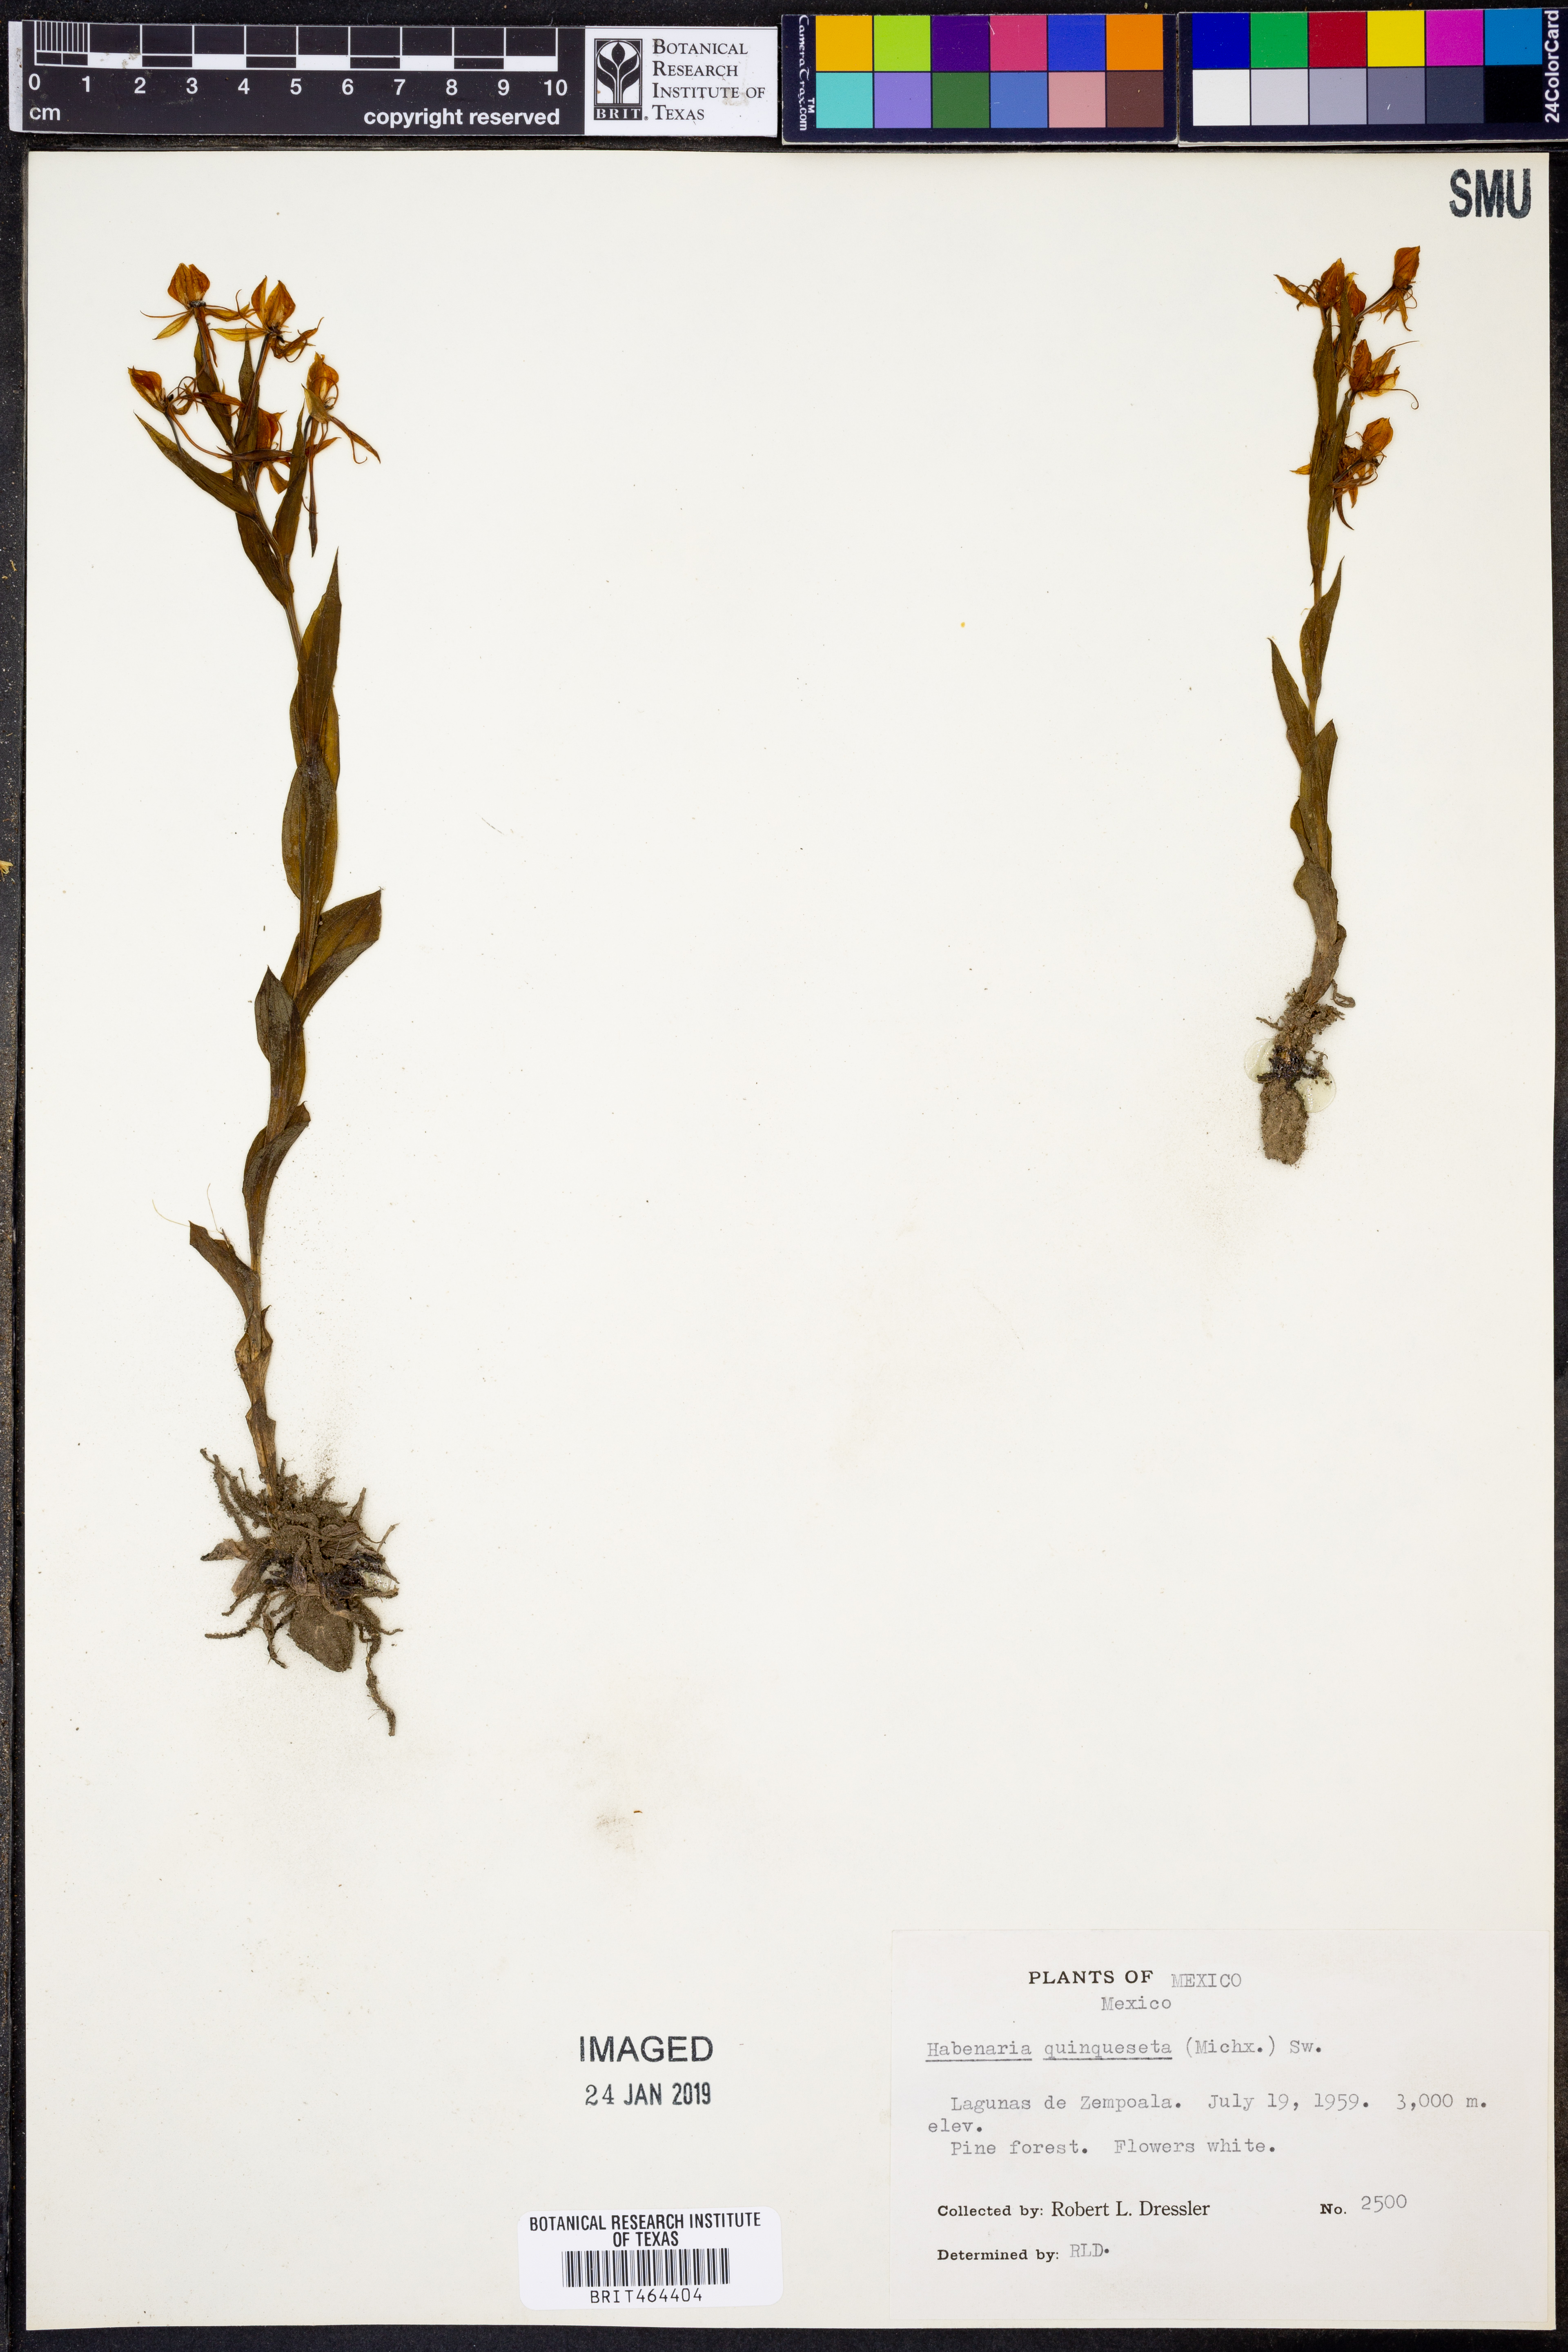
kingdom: Plantae
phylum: Tracheophyta
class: Liliopsida
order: Asparagales
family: Orchidaceae
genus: Habenaria
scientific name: Habenaria quinqueseta
